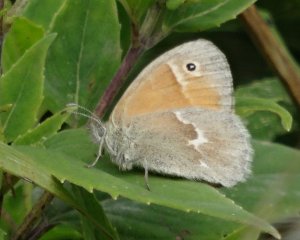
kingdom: Animalia
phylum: Arthropoda
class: Insecta
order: Lepidoptera
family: Nymphalidae
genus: Coenonympha
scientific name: Coenonympha tullia
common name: Large Heath
